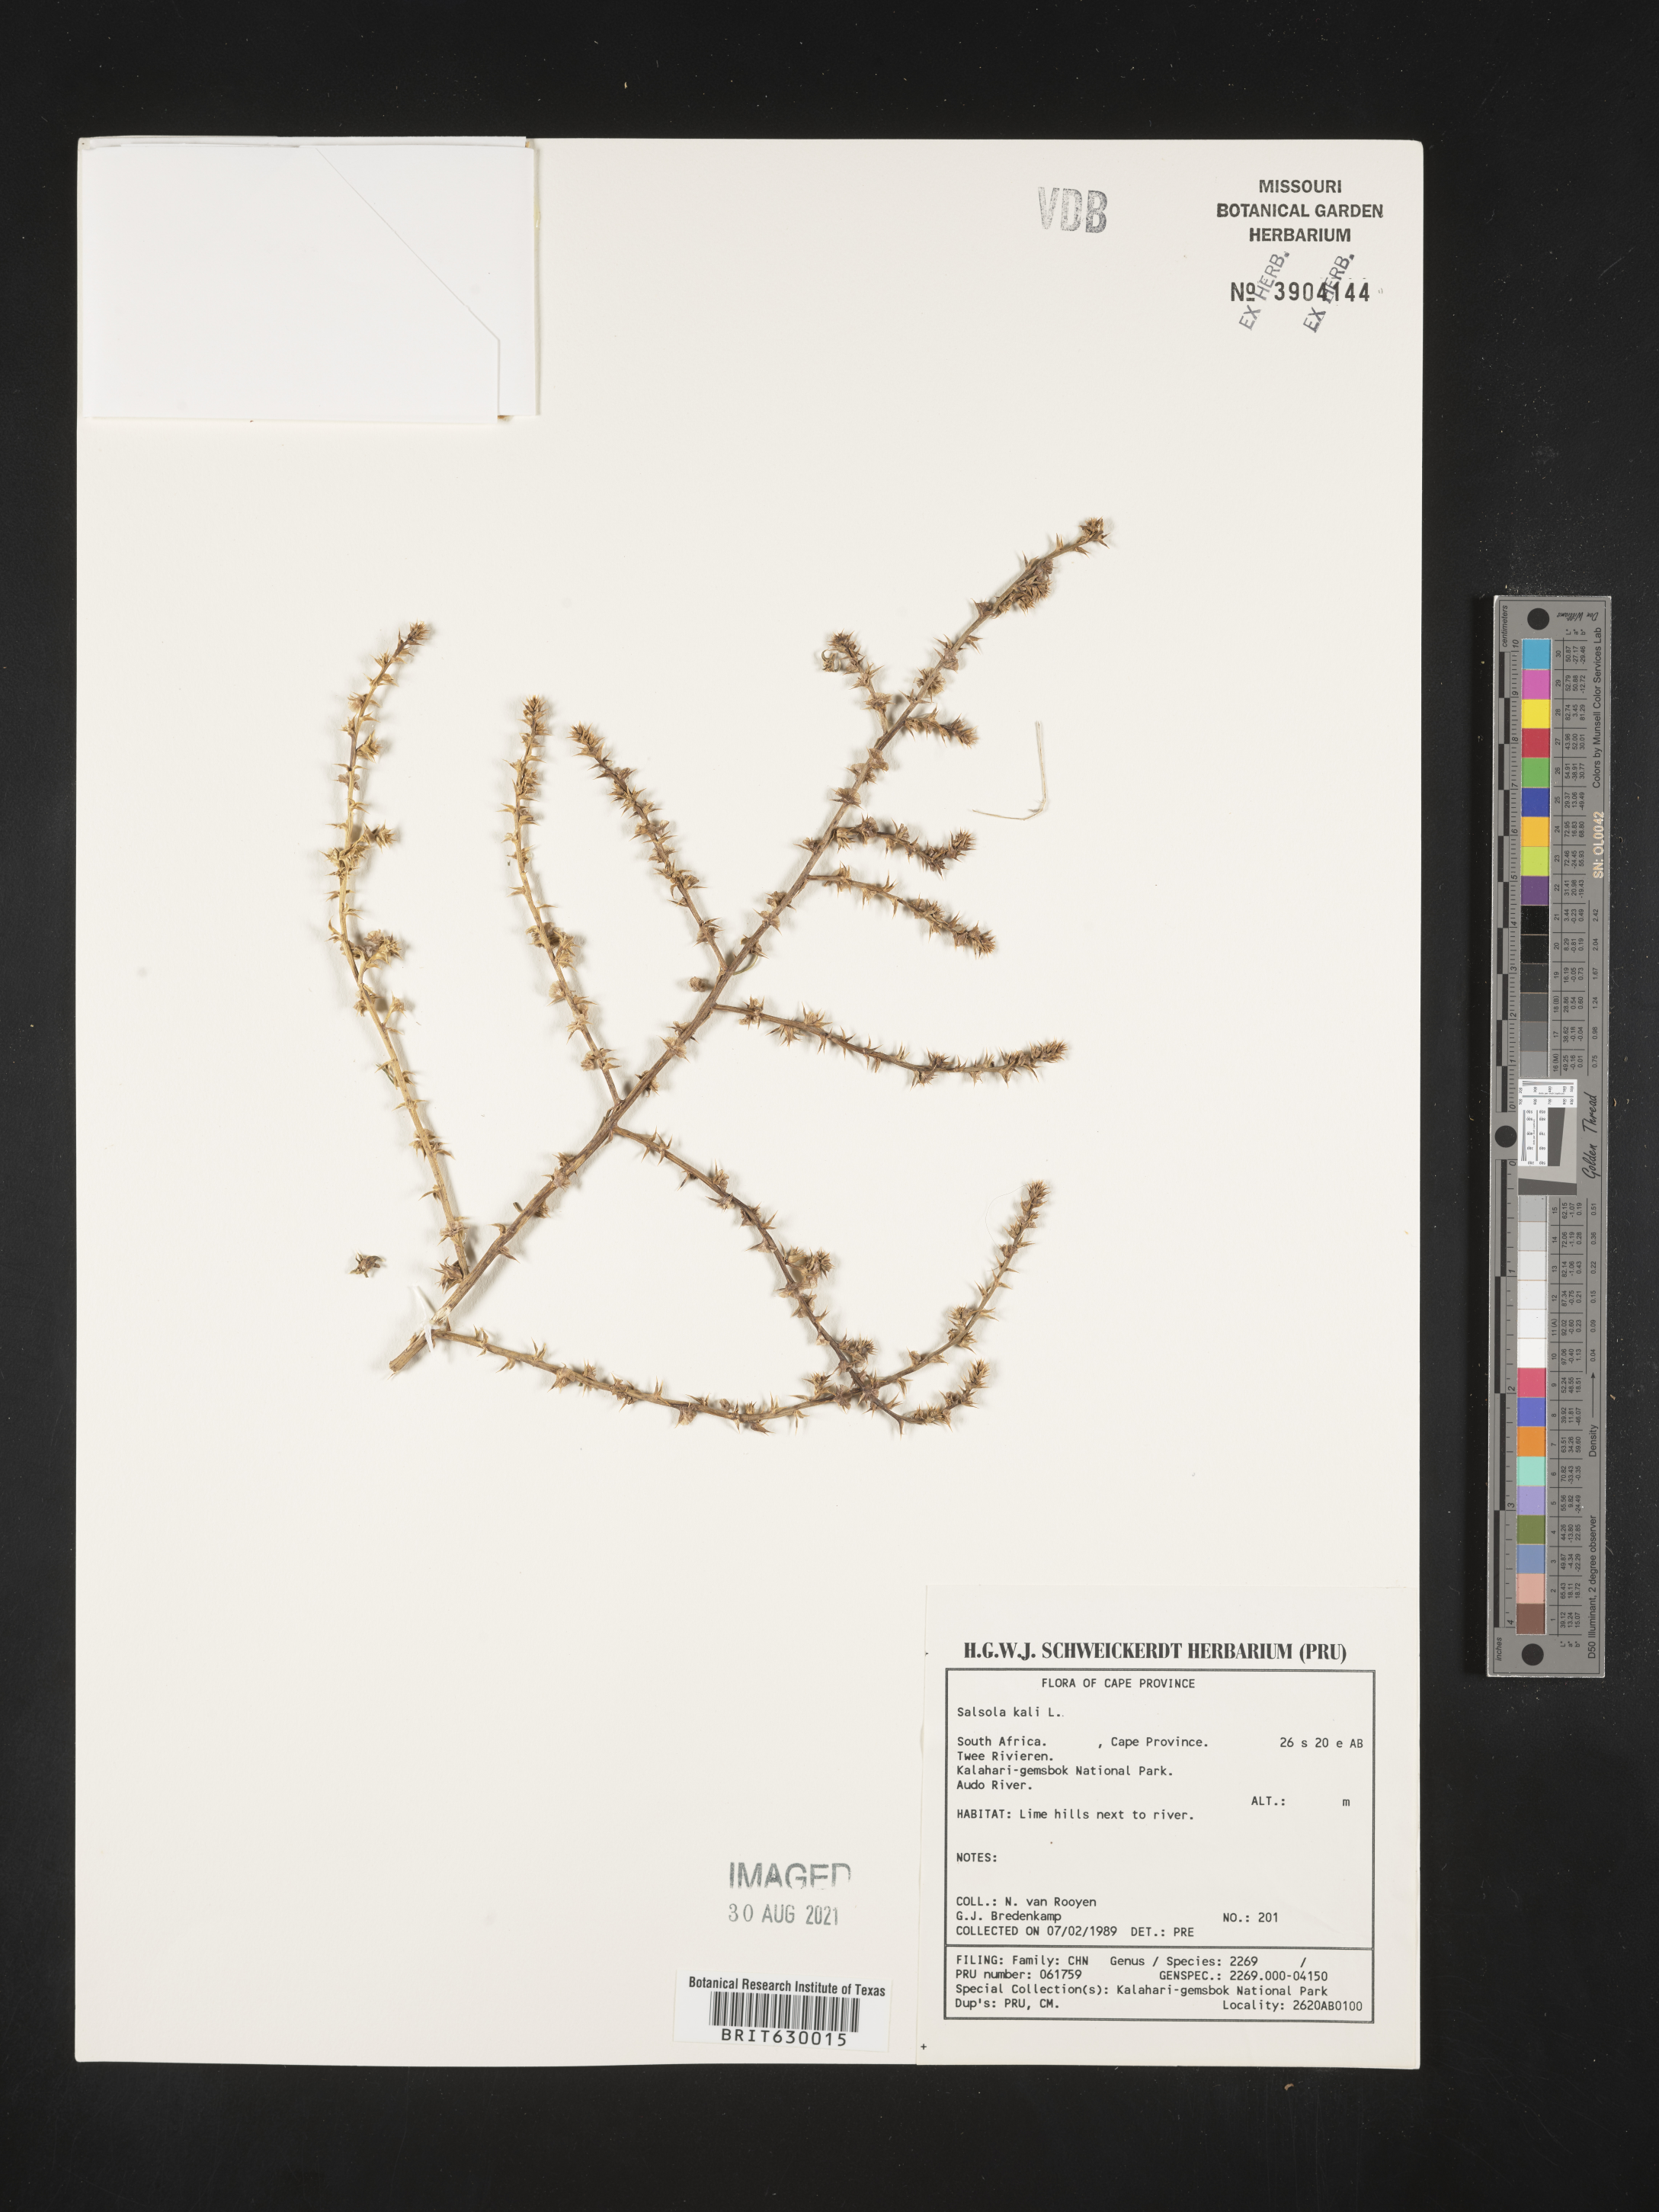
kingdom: Plantae
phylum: Tracheophyta
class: Magnoliopsida
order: Caryophyllales
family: Amaranthaceae
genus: Salsola
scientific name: Salsola kali
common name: Saltwort
